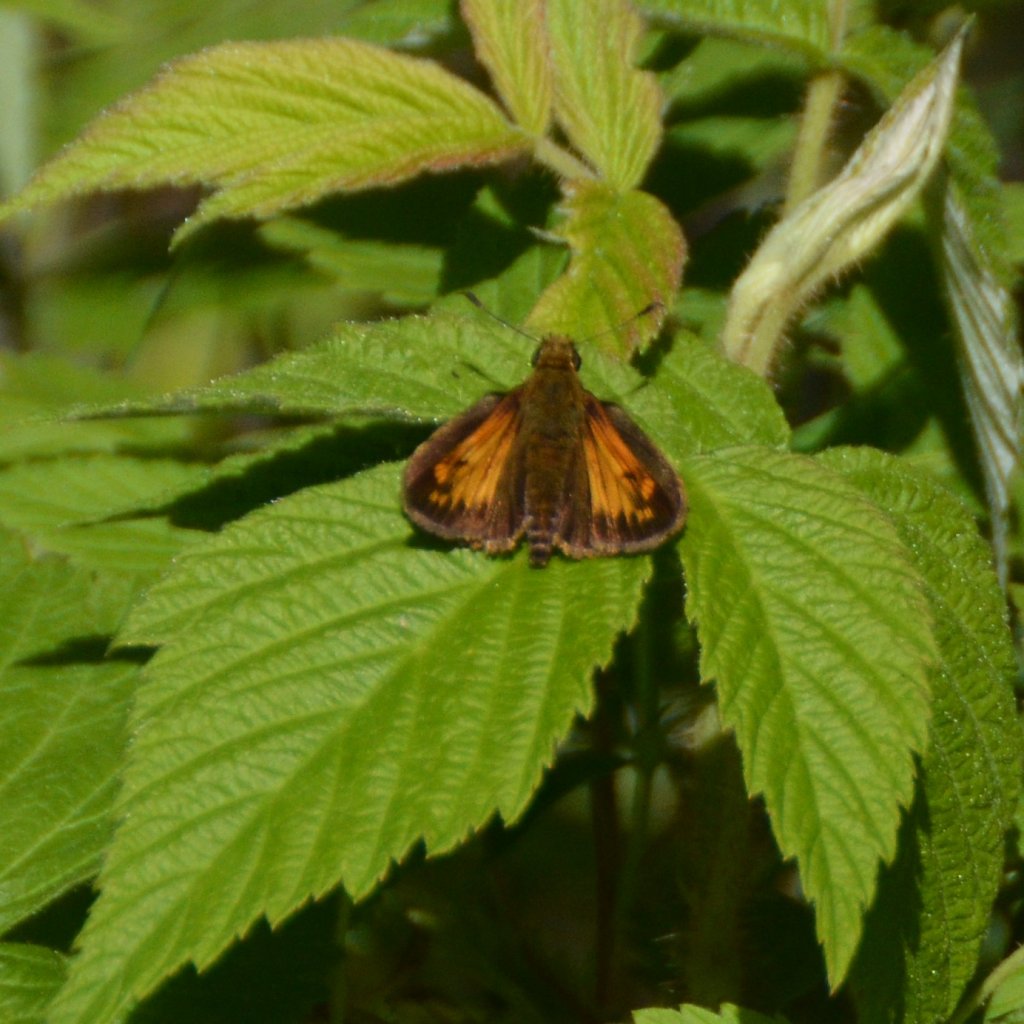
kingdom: Animalia
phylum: Arthropoda
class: Insecta
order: Lepidoptera
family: Hesperiidae
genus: Lon
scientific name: Lon hobomok
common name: Hobomok Skipper
